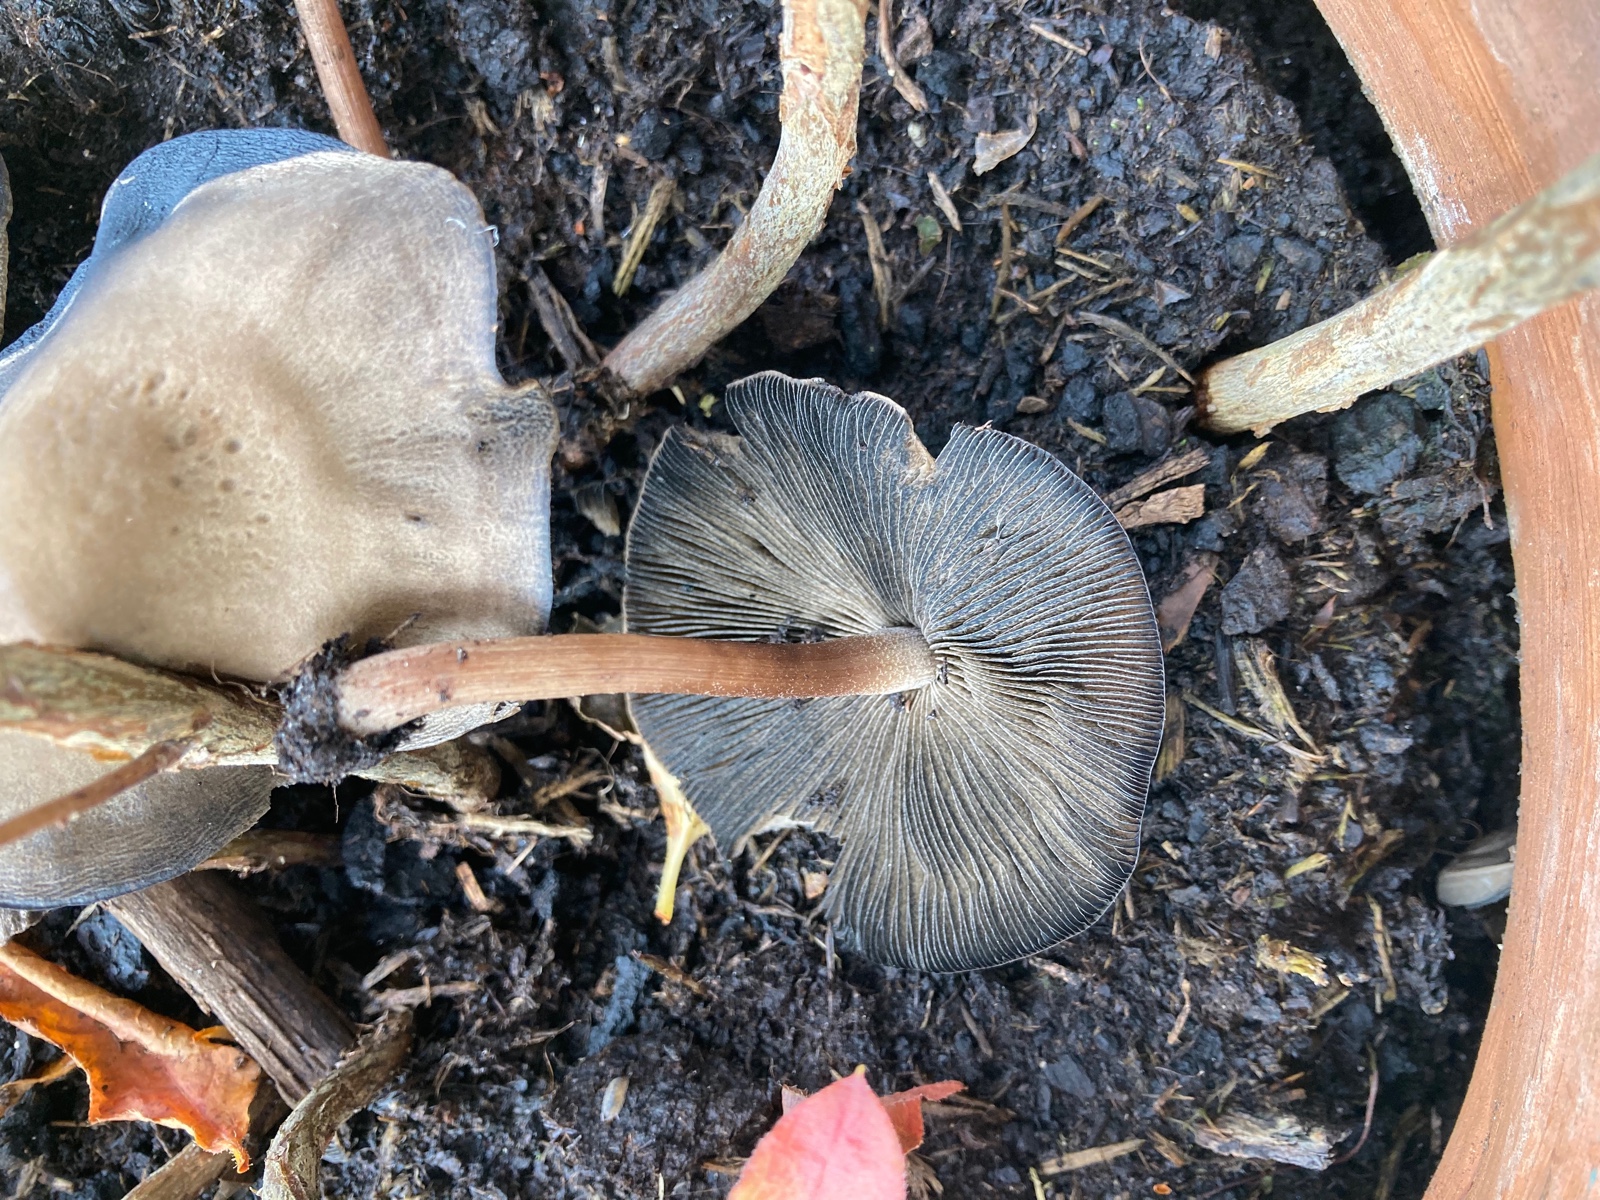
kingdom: Fungi
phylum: Basidiomycota
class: Agaricomycetes
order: Agaricales
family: Bolbitiaceae
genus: Panaeolus
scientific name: Panaeolus
